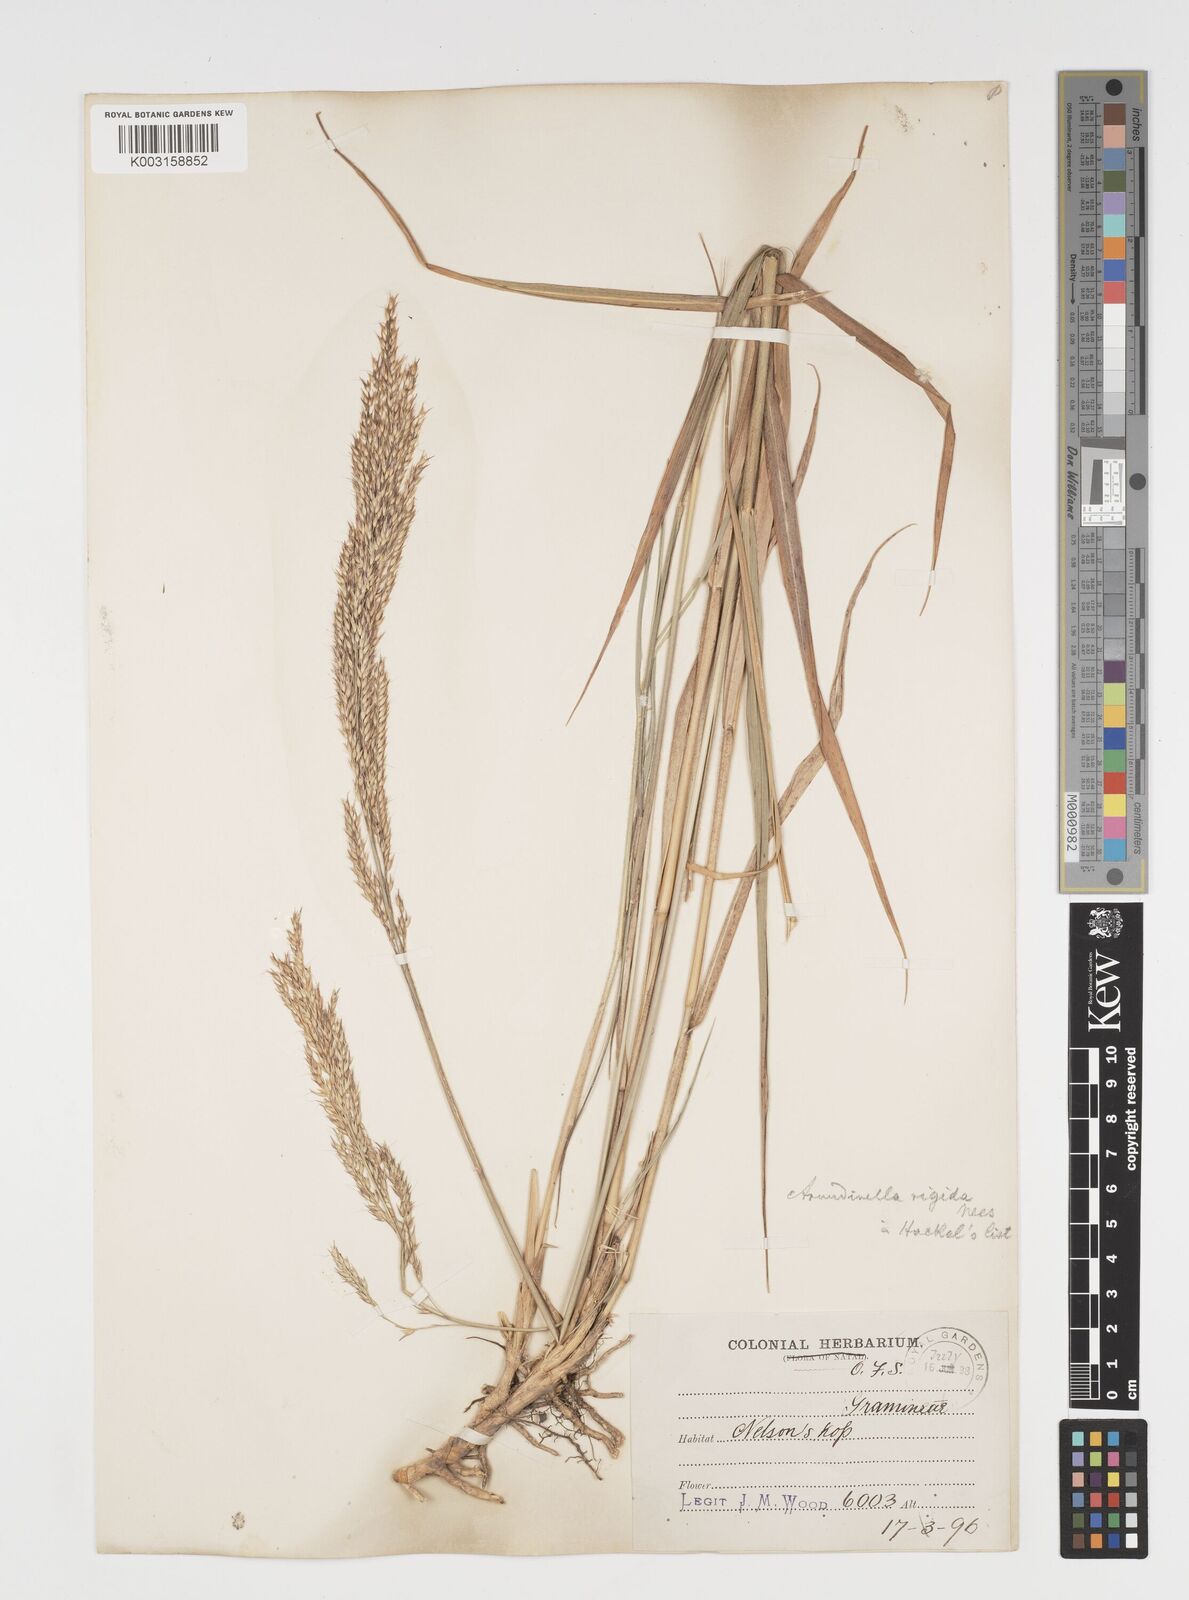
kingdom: Plantae
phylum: Tracheophyta
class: Liliopsida
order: Poales
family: Poaceae
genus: Arundinella
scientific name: Arundinella nepalensis
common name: Reed grass
